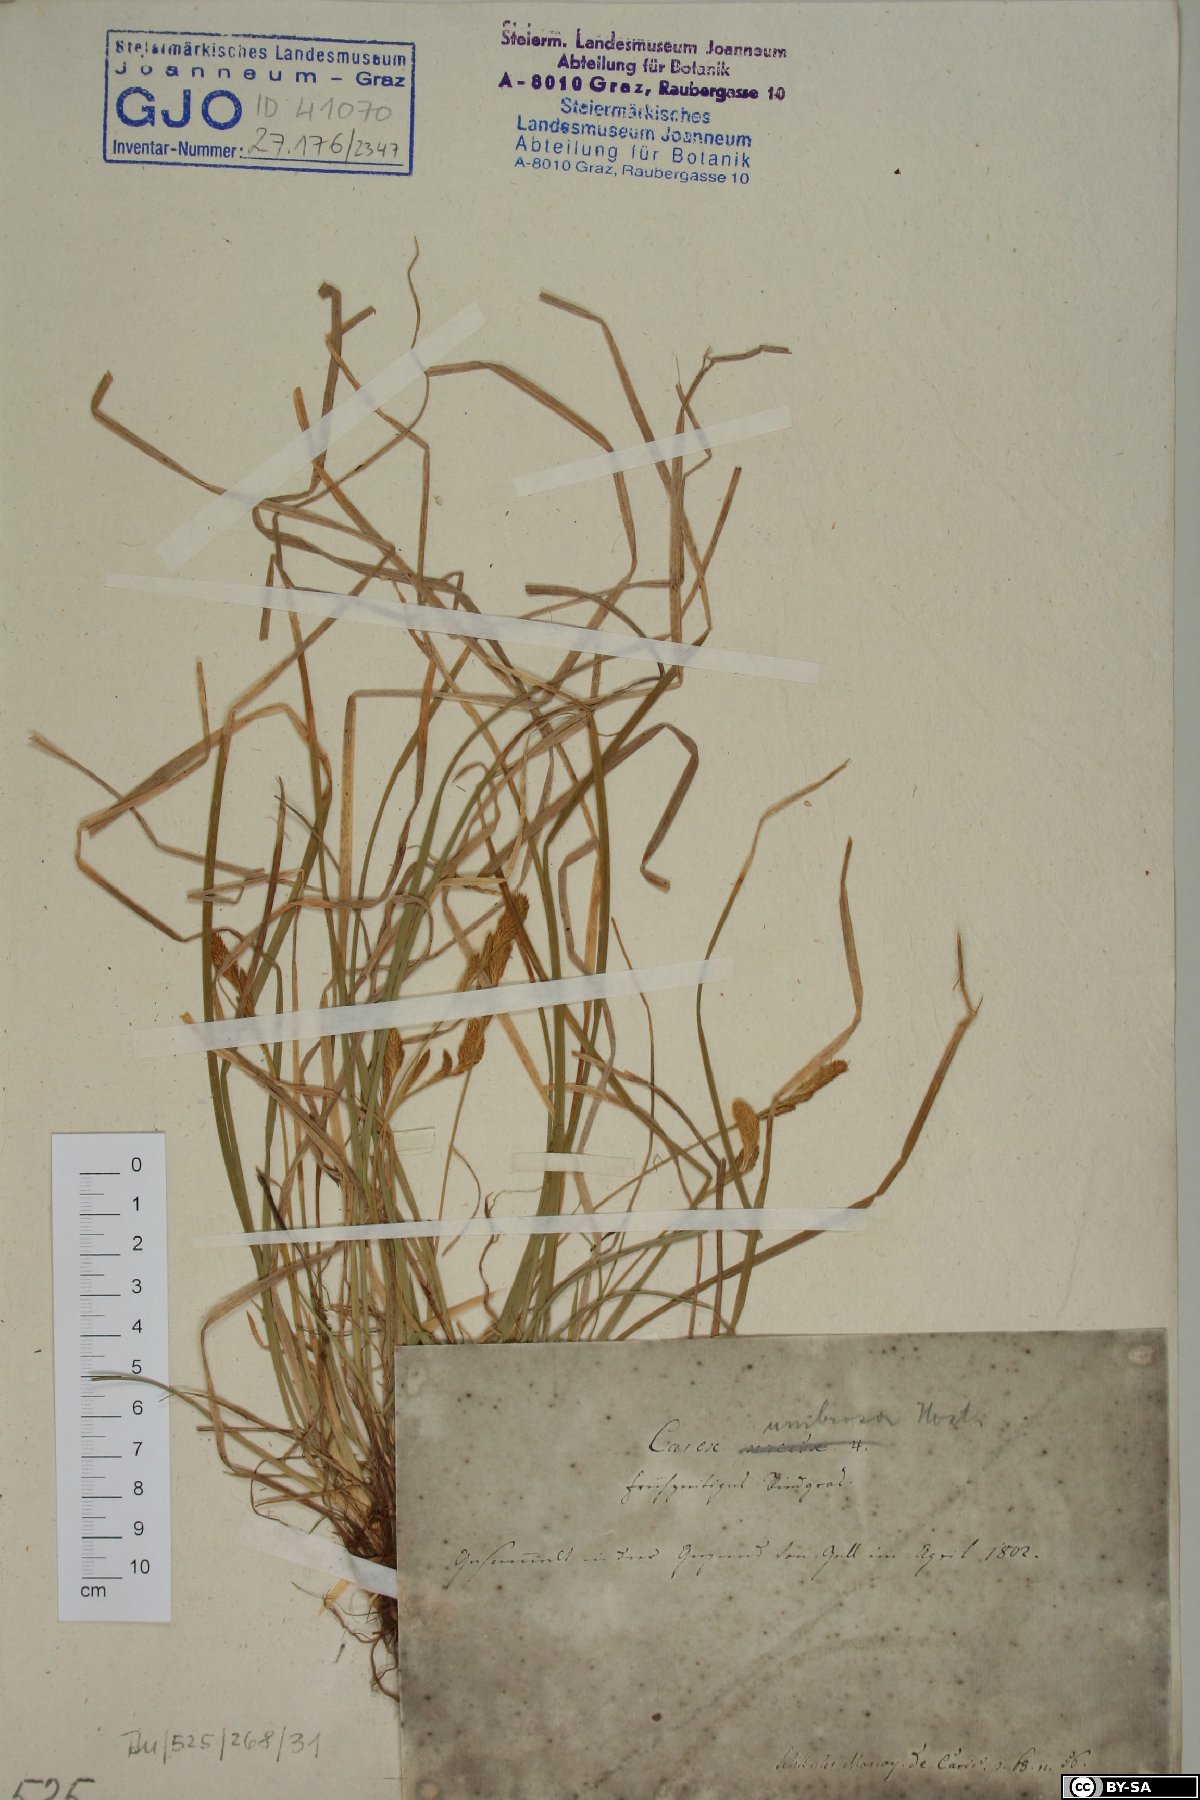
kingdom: Plantae
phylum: Tracheophyta
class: Liliopsida
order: Poales
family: Cyperaceae
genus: Carex
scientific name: Carex praecox
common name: Early sedge
